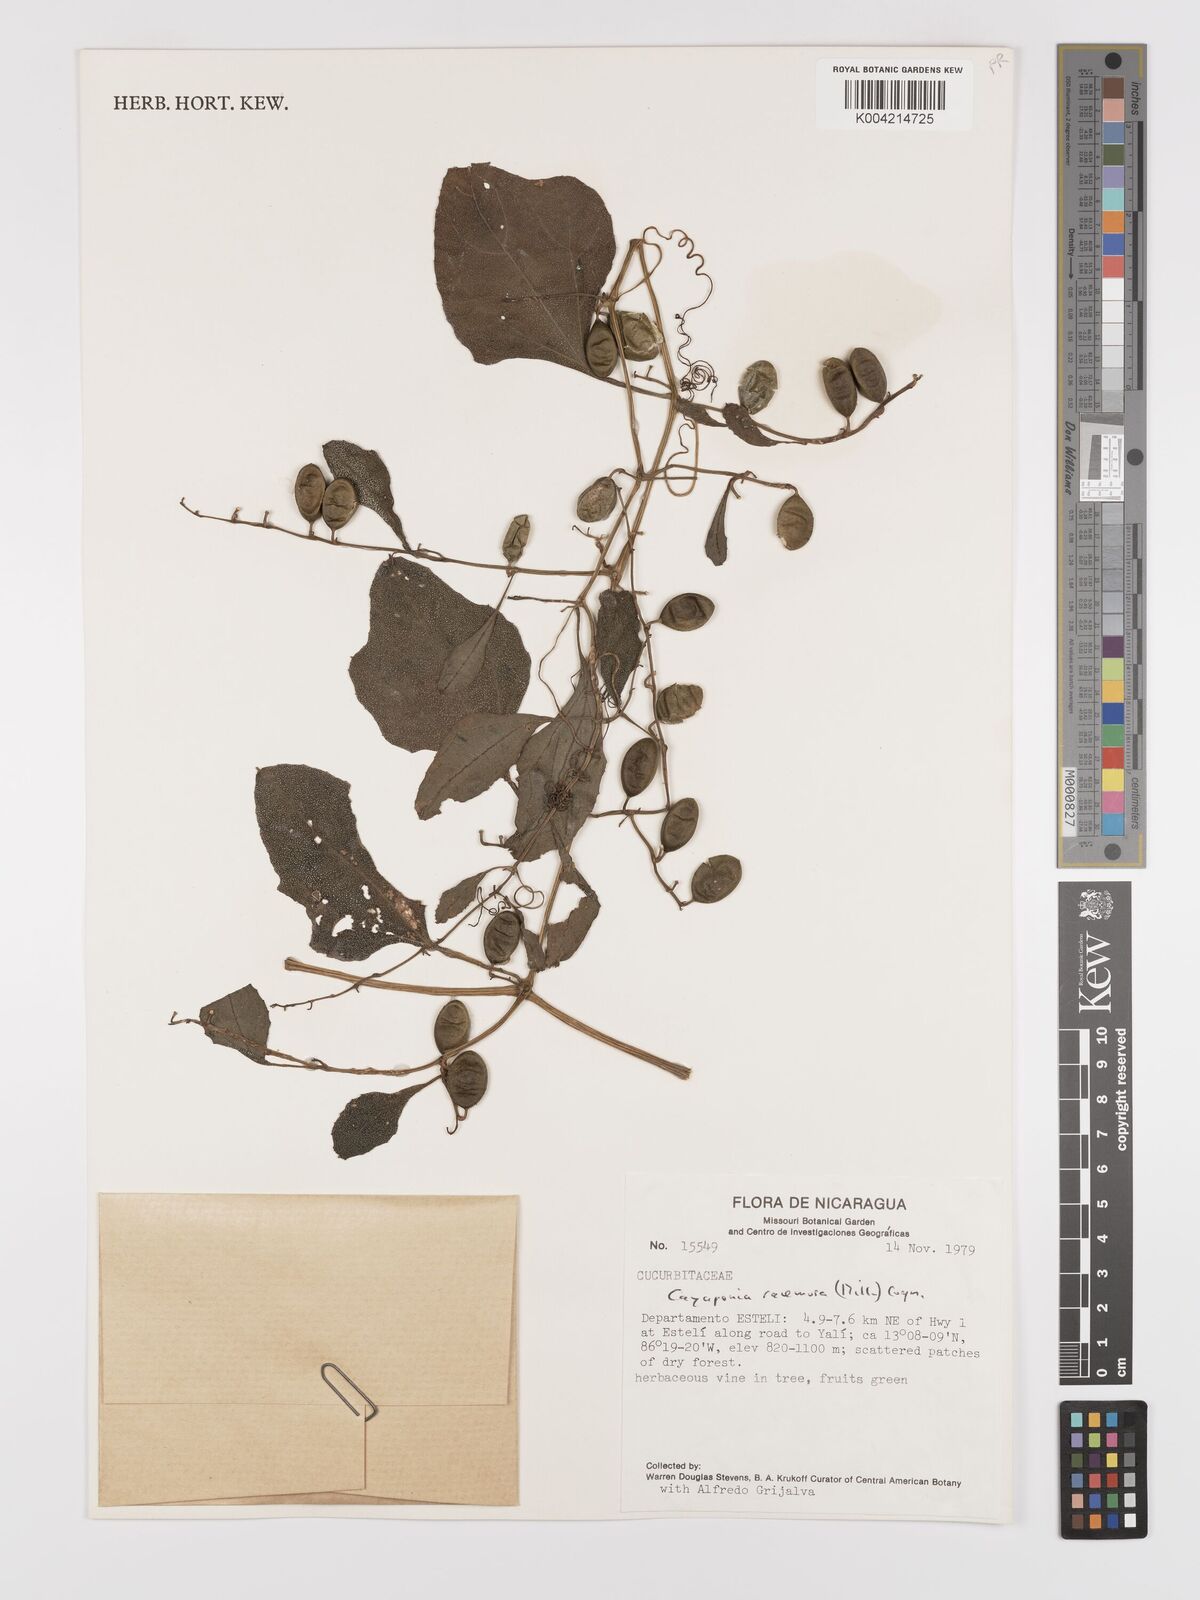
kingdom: Plantae
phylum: Tracheophyta
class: Magnoliopsida
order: Cucurbitales
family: Cucurbitaceae
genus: Cayaponia
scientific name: Cayaponia racemosa
